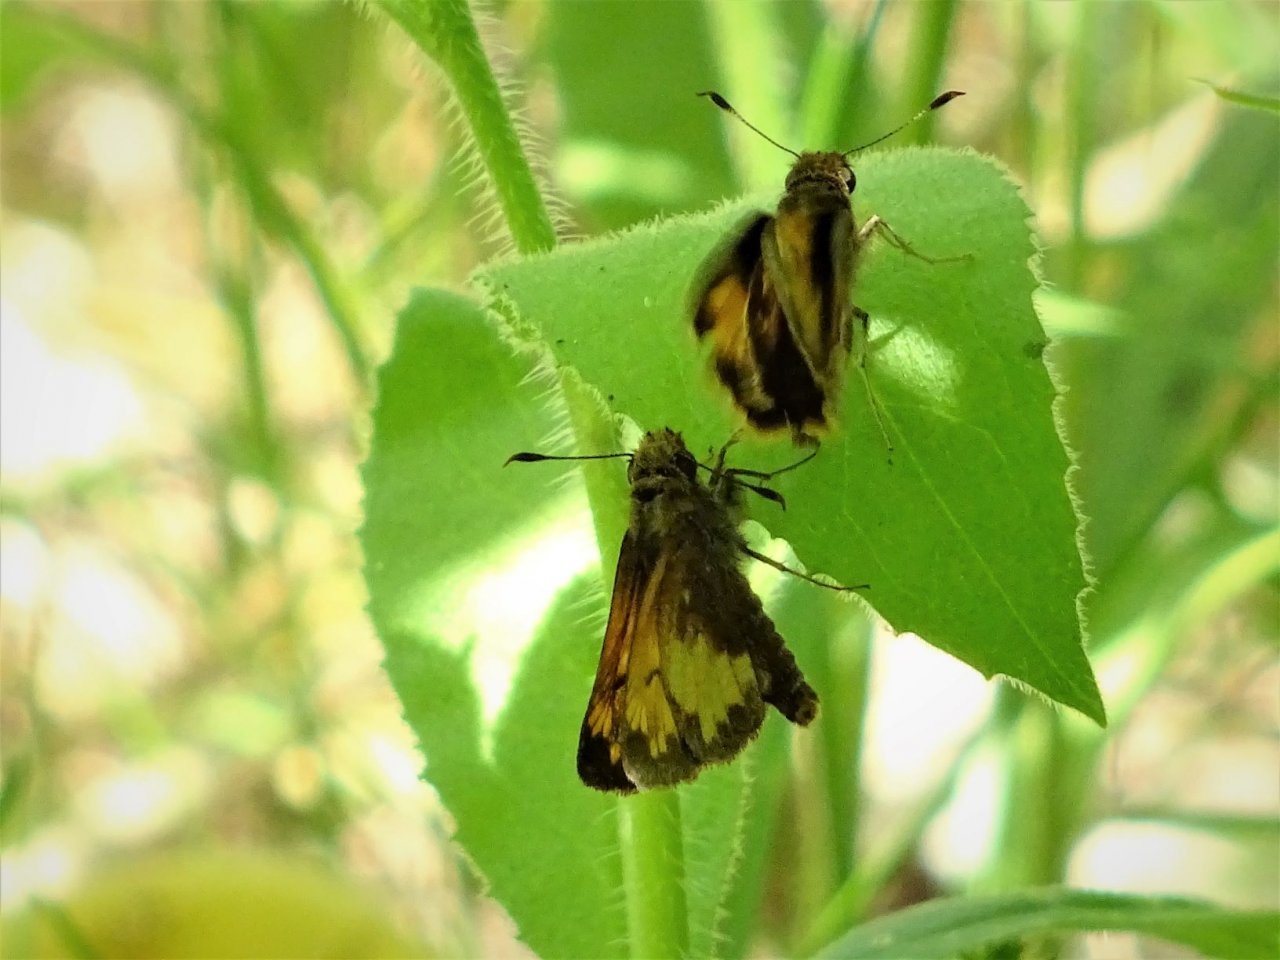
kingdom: Animalia
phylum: Arthropoda
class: Insecta
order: Lepidoptera
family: Hesperiidae
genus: Lon
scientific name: Lon hobomok
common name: Hobomok Skipper
